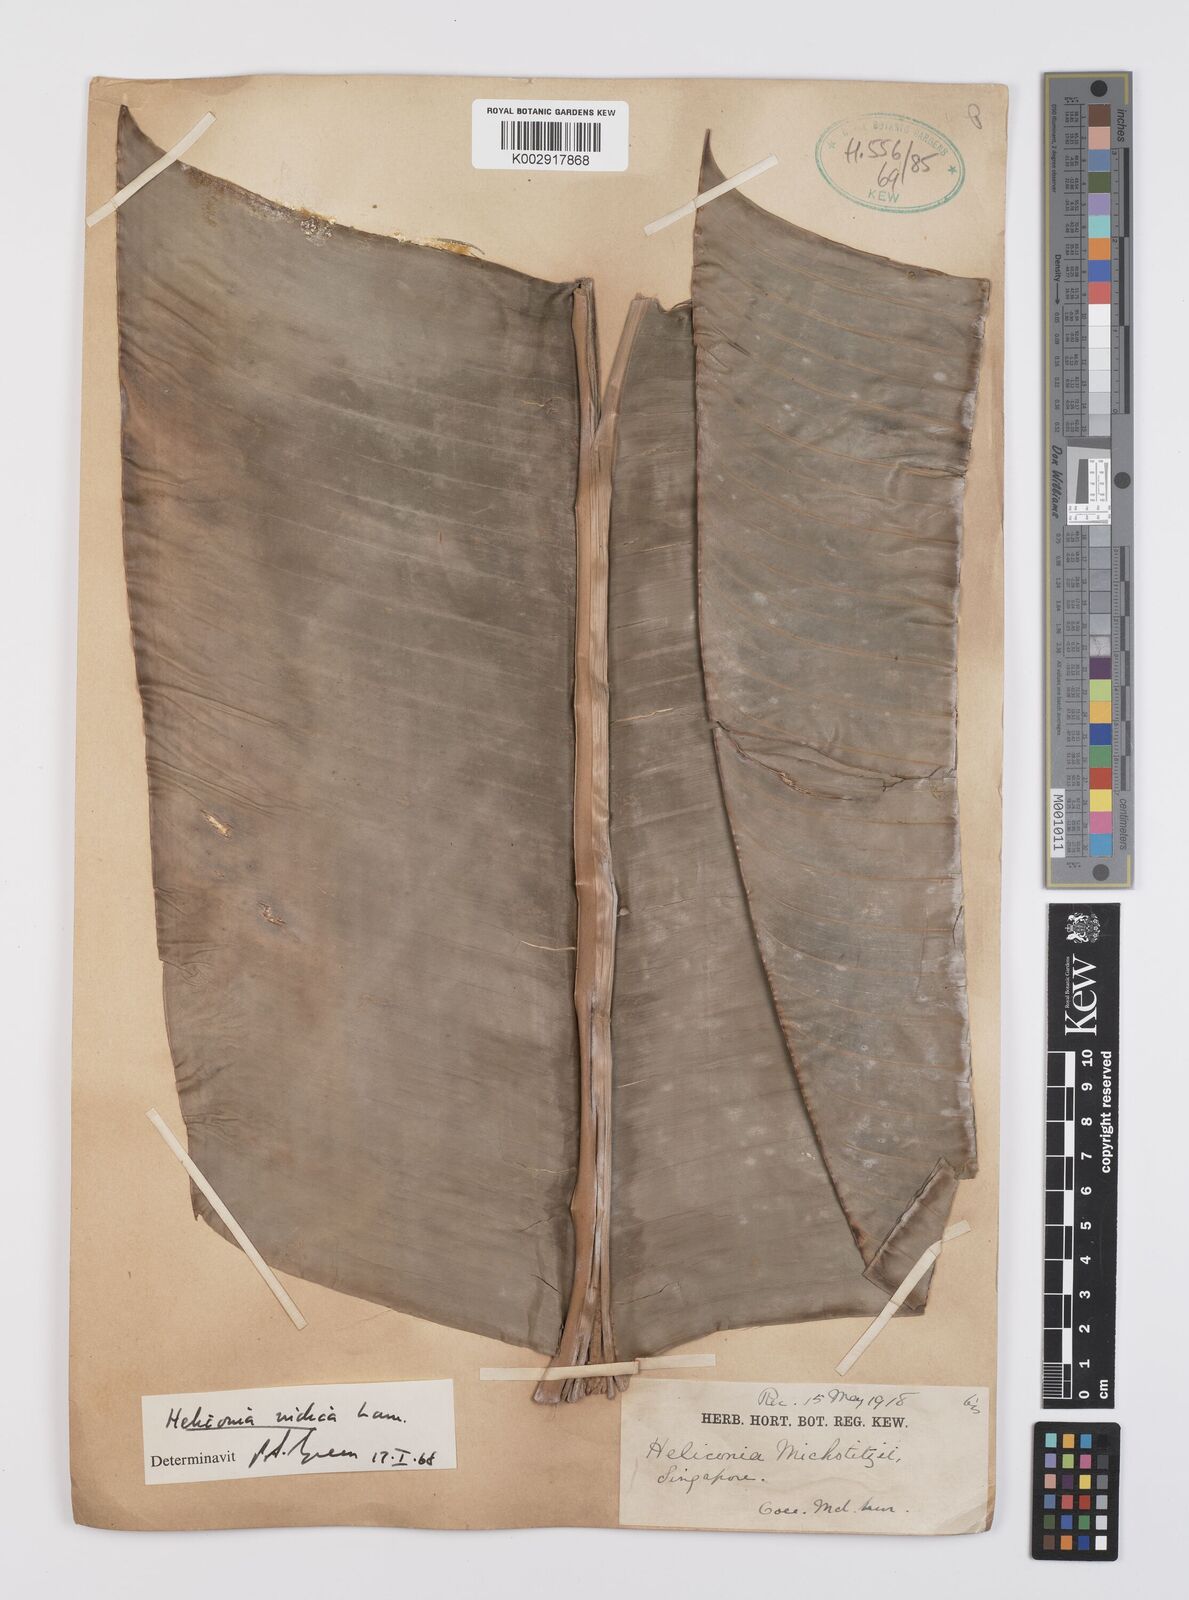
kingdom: Plantae
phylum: Tracheophyta
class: Liliopsida
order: Zingiberales
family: Heliconiaceae
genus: Heliconia
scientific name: Heliconia indica
